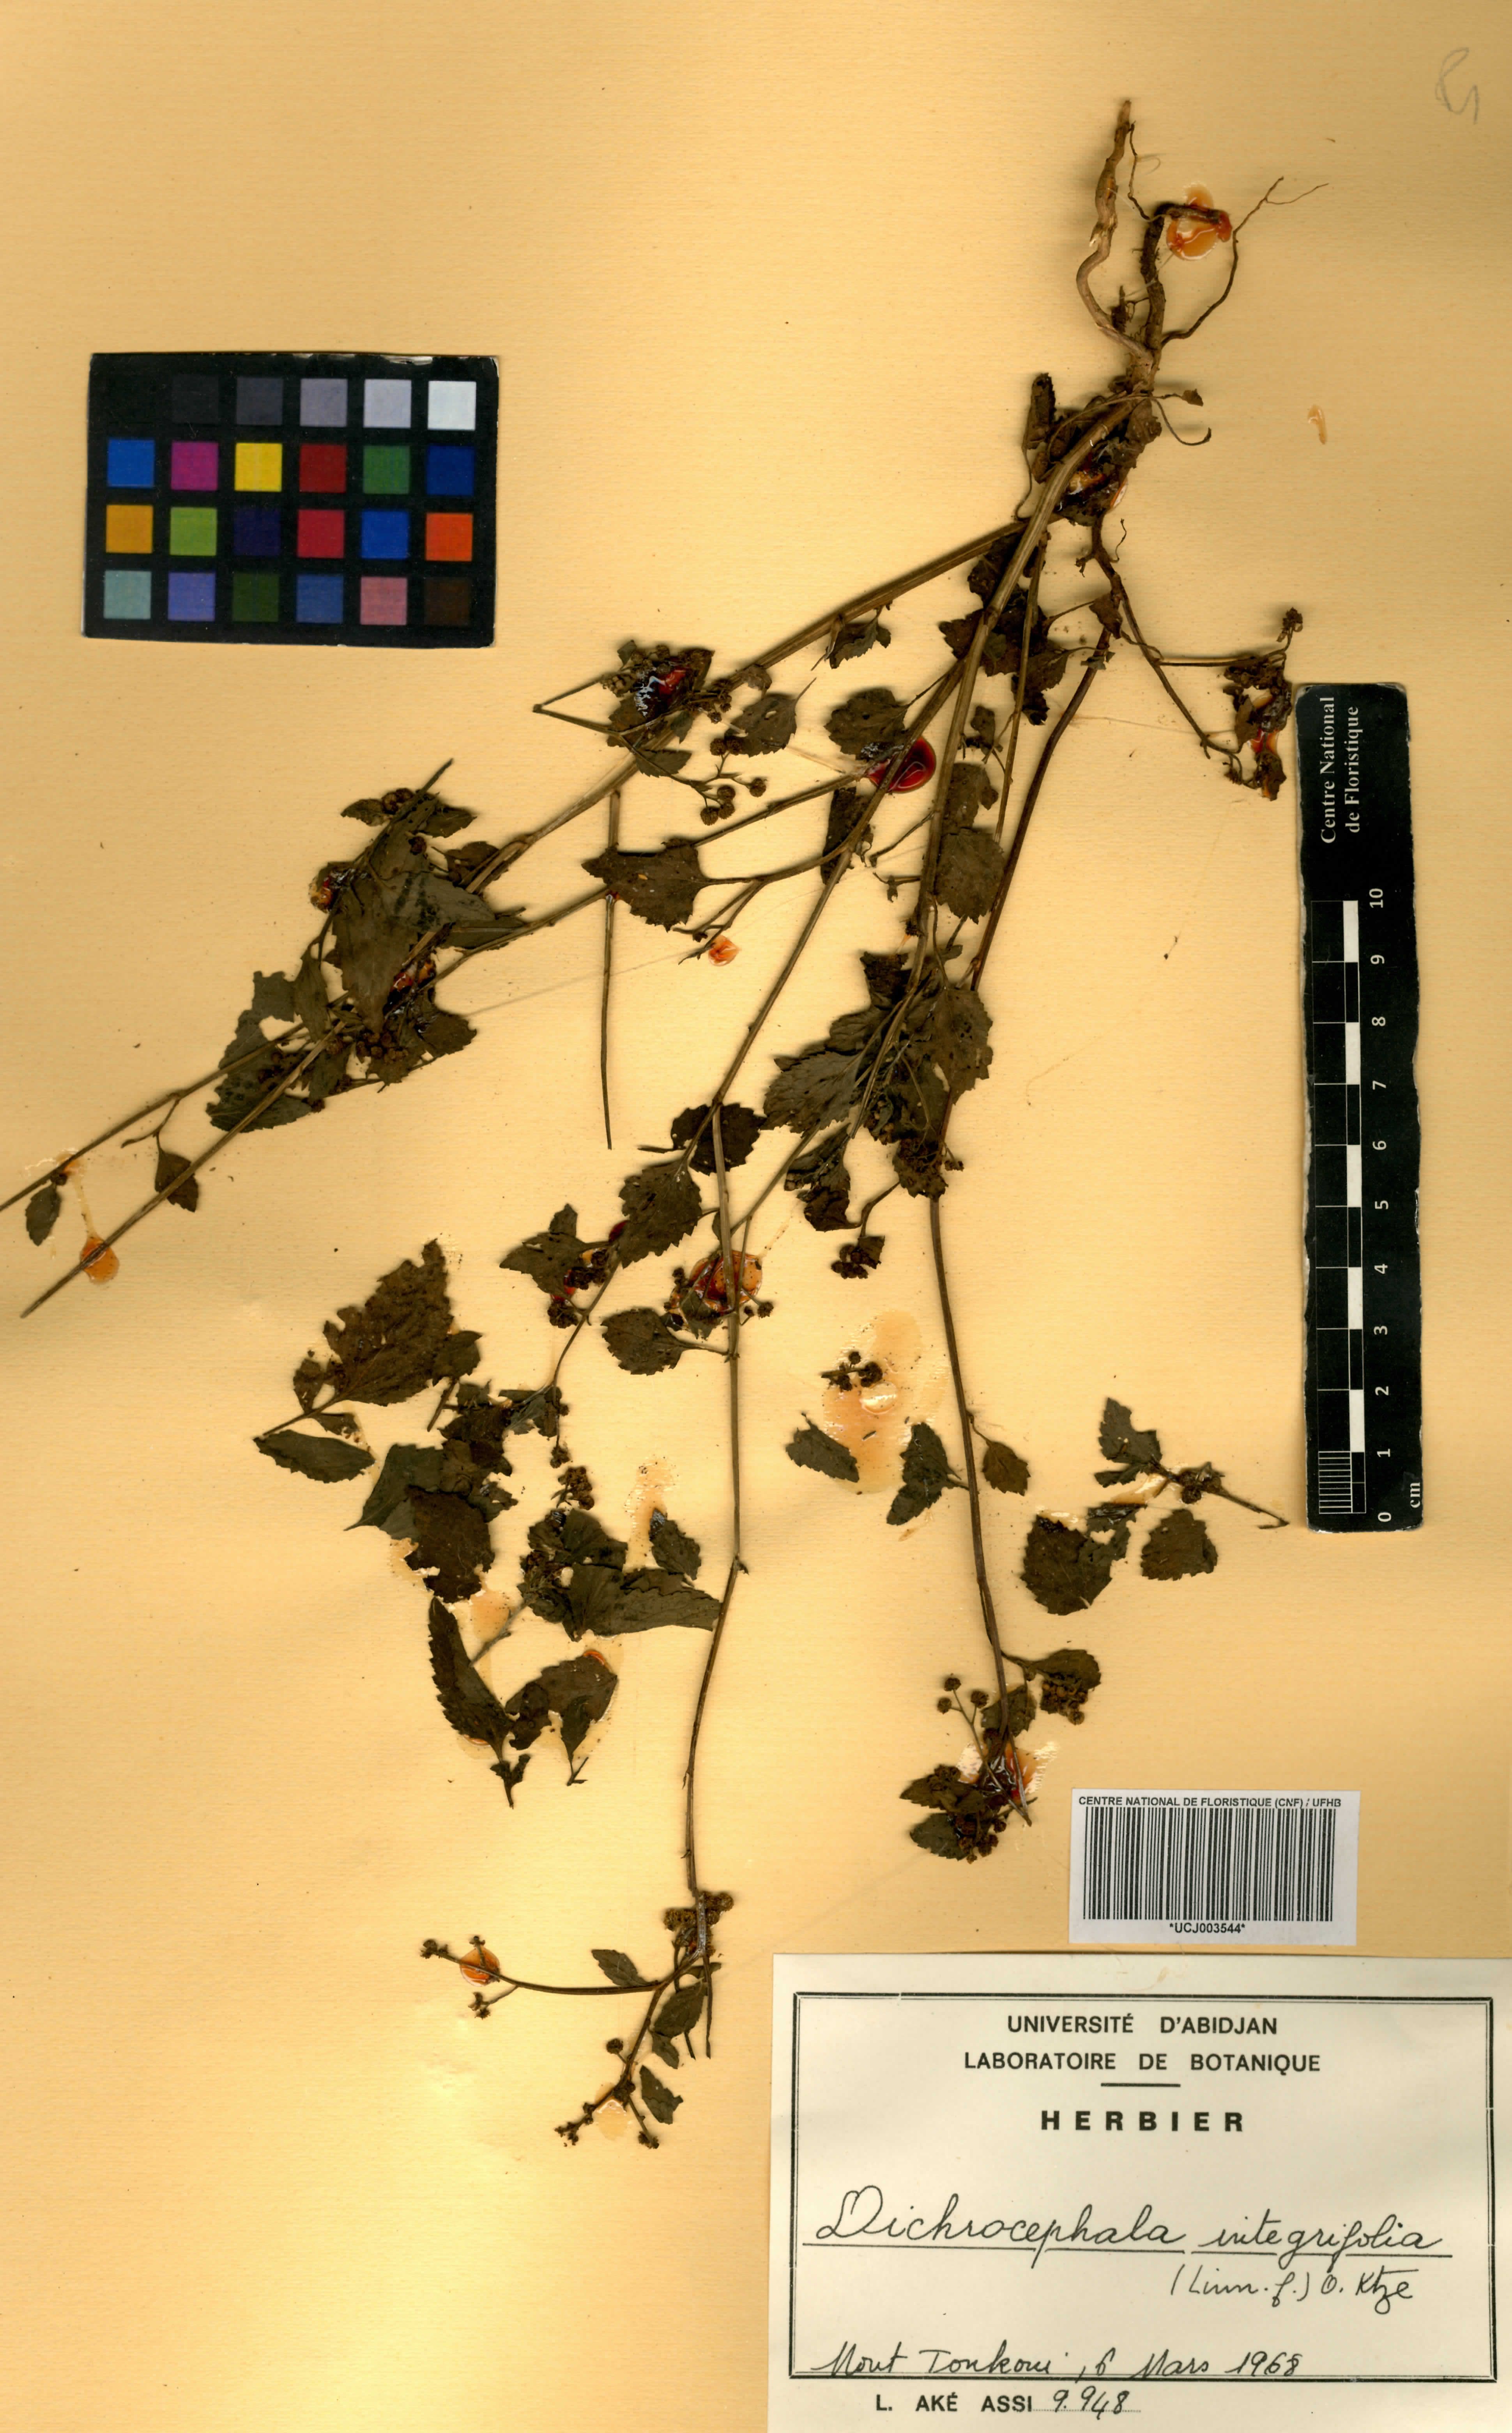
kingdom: Plantae
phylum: Tracheophyta
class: Magnoliopsida
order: Asterales
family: Asteraceae
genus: Dichrocephala
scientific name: Dichrocephala integrifolia
